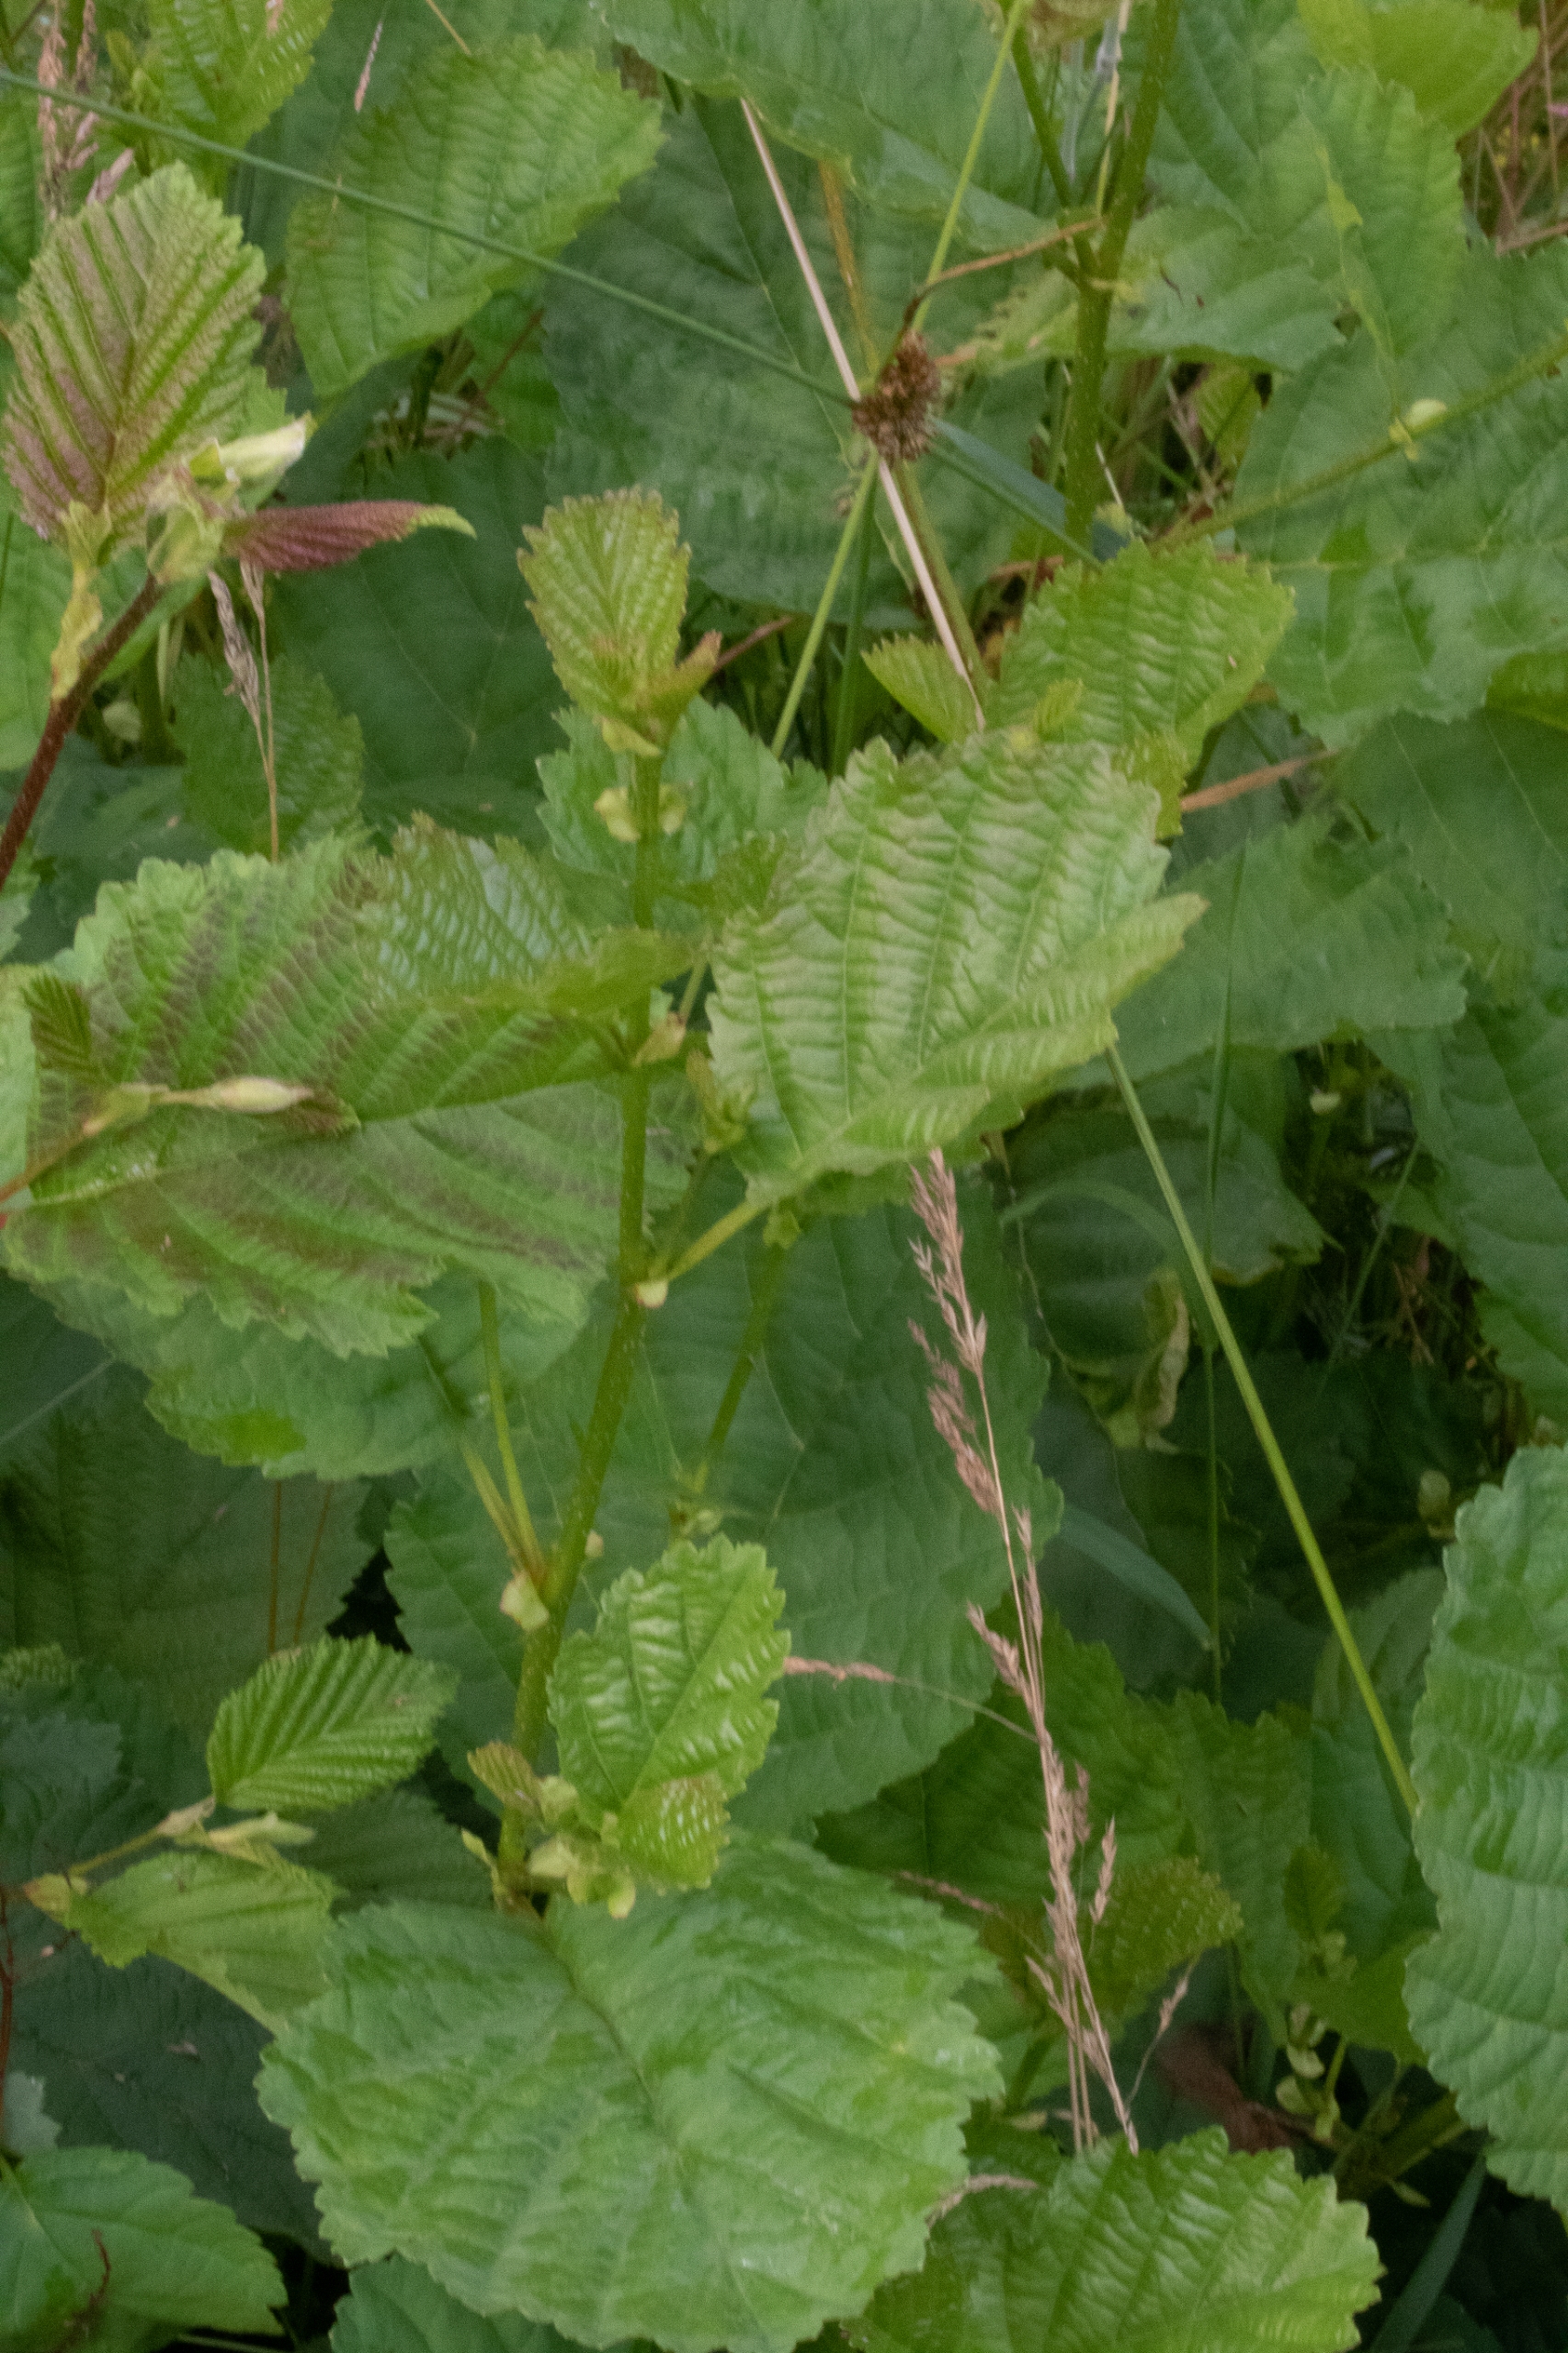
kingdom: Plantae
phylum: Tracheophyta
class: Magnoliopsida
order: Fagales
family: Betulaceae
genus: Corylus
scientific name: Corylus avellana
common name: Hassel
